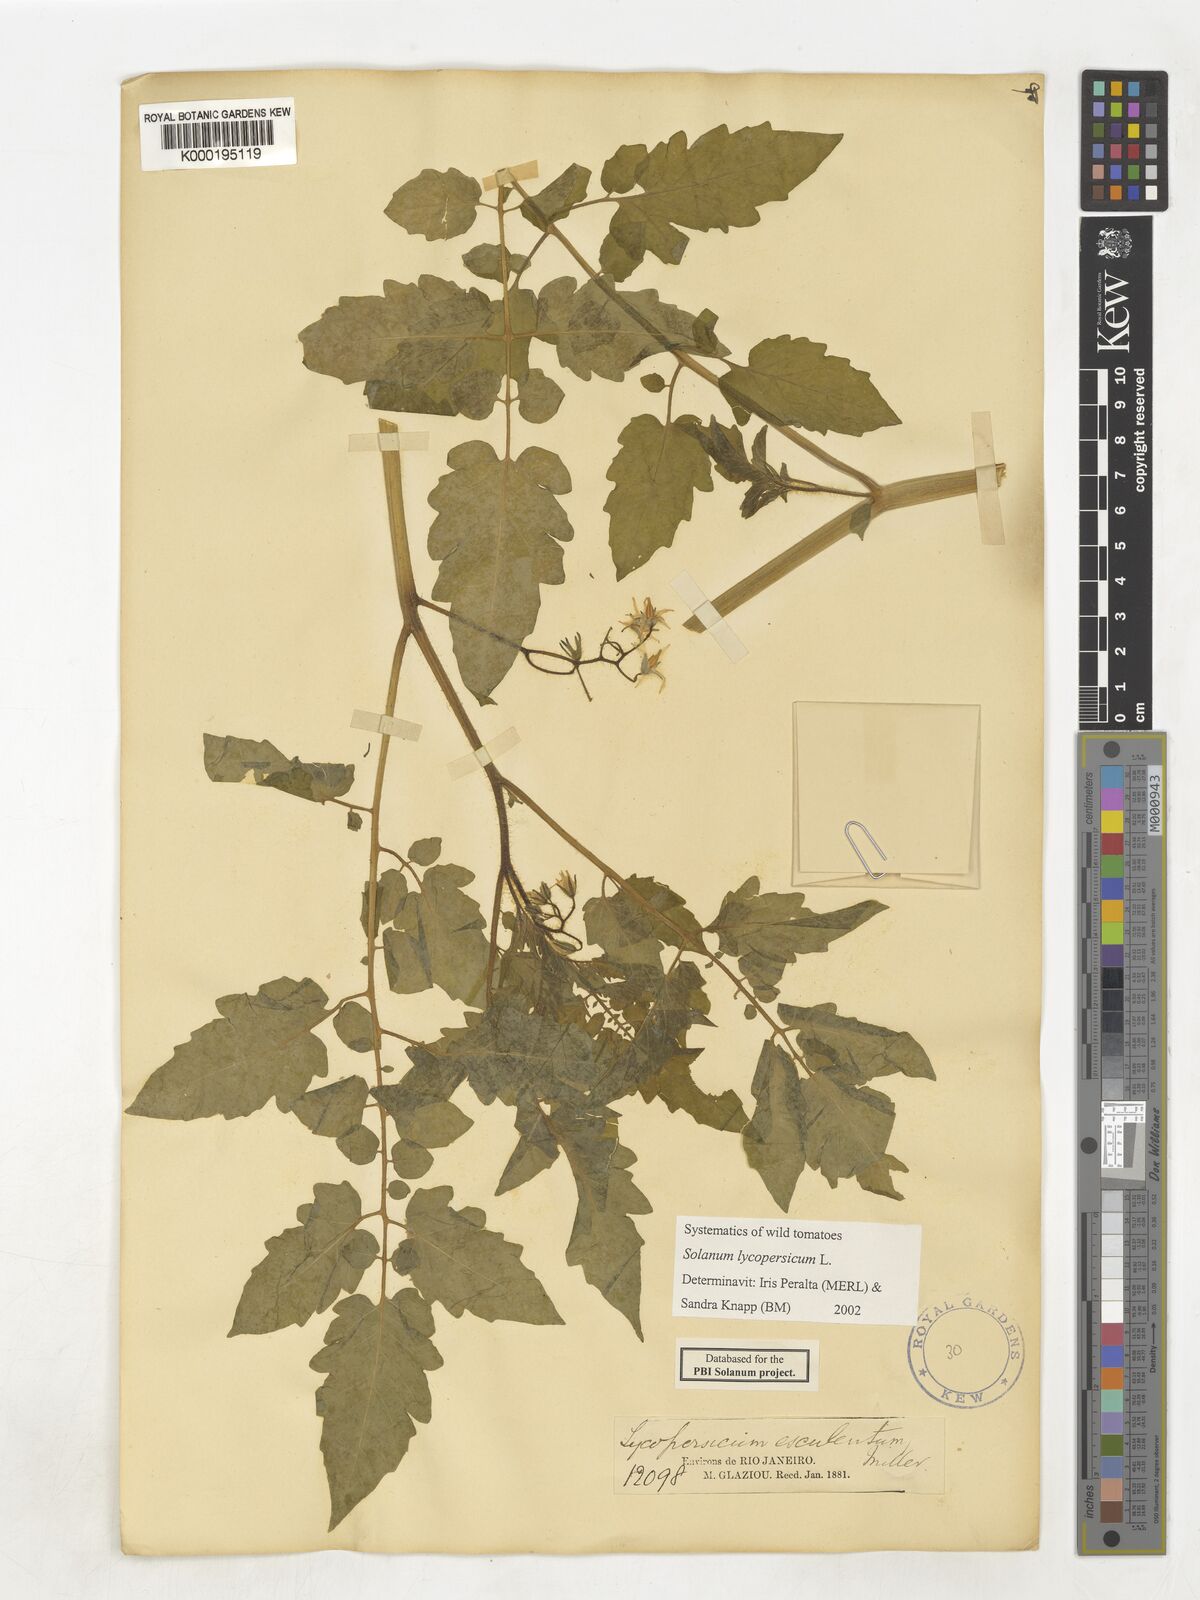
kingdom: Plantae
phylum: Tracheophyta
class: Magnoliopsida
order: Solanales
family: Solanaceae
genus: Solanum
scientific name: Solanum lycopersicum
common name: Garden tomato
